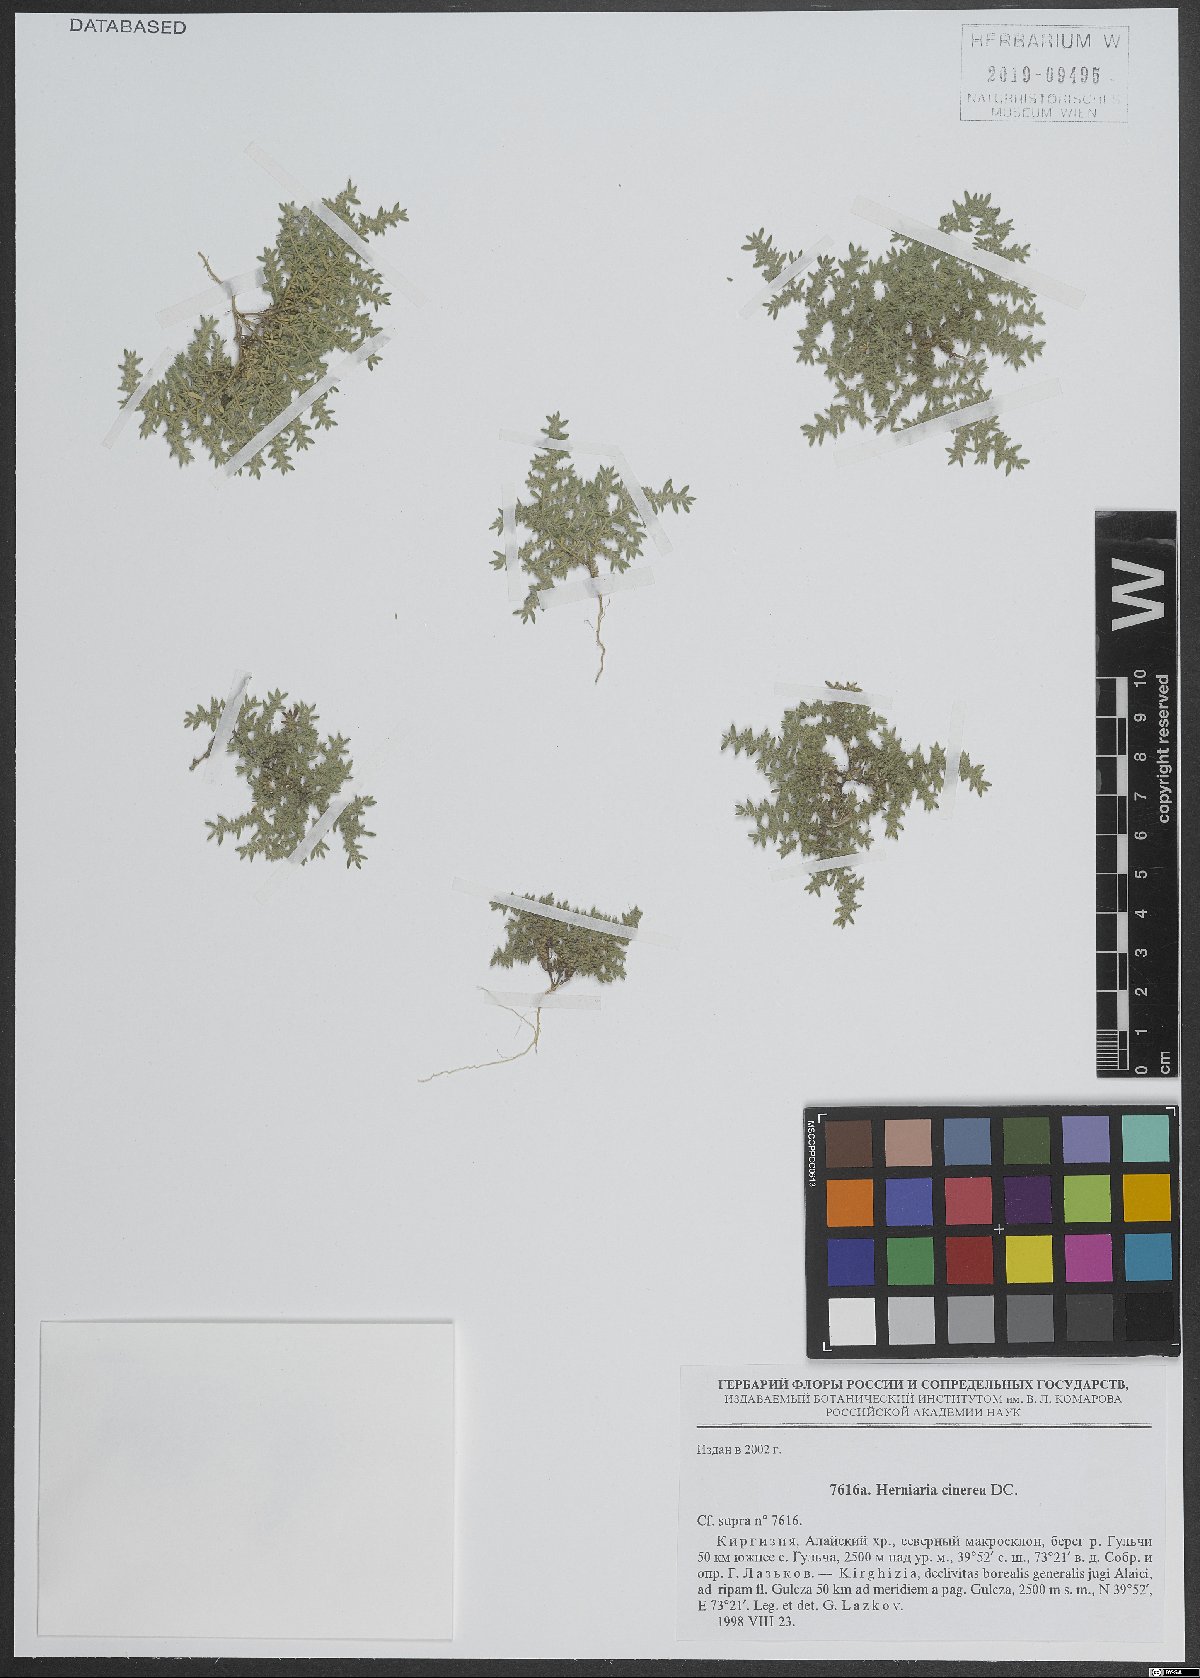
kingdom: Plantae
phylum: Tracheophyta
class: Magnoliopsida
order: Caryophyllales
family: Caryophyllaceae
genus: Herniaria
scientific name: Herniaria cinerea
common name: Hairy rupturewort
